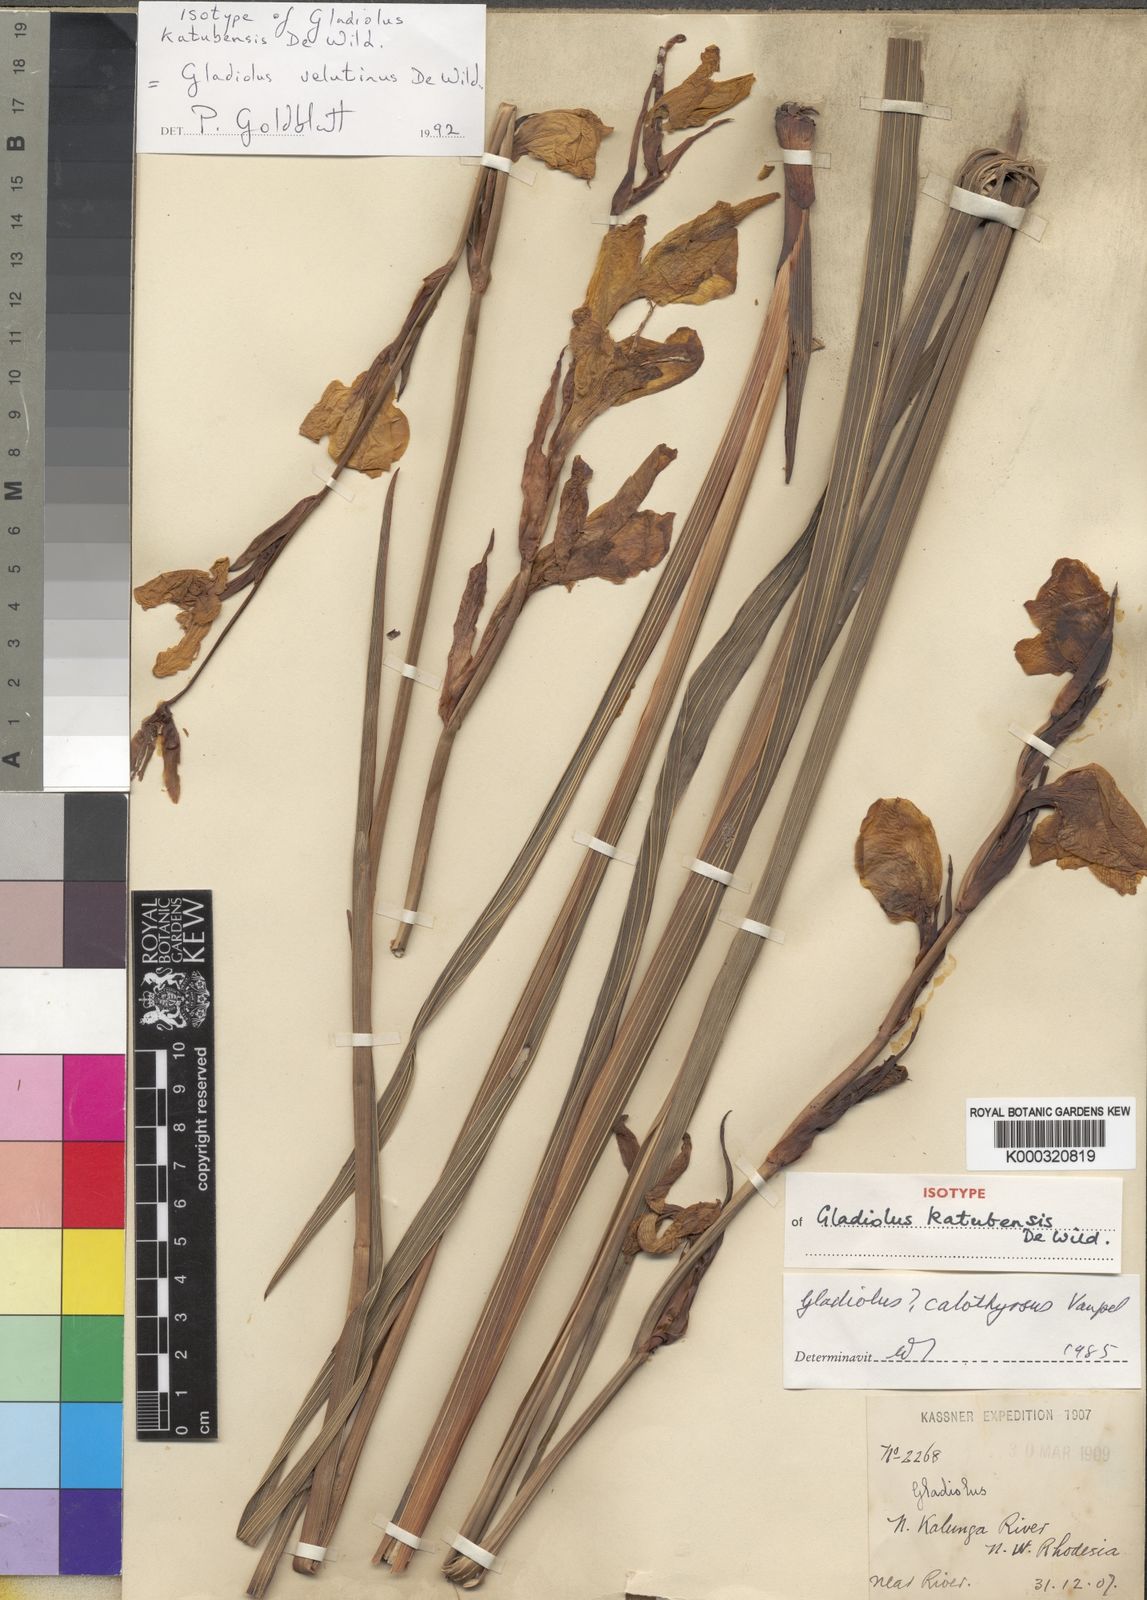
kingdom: Plantae
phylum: Tracheophyta
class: Liliopsida
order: Asparagales
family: Iridaceae
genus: Gladiolus
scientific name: Gladiolus velutinus
